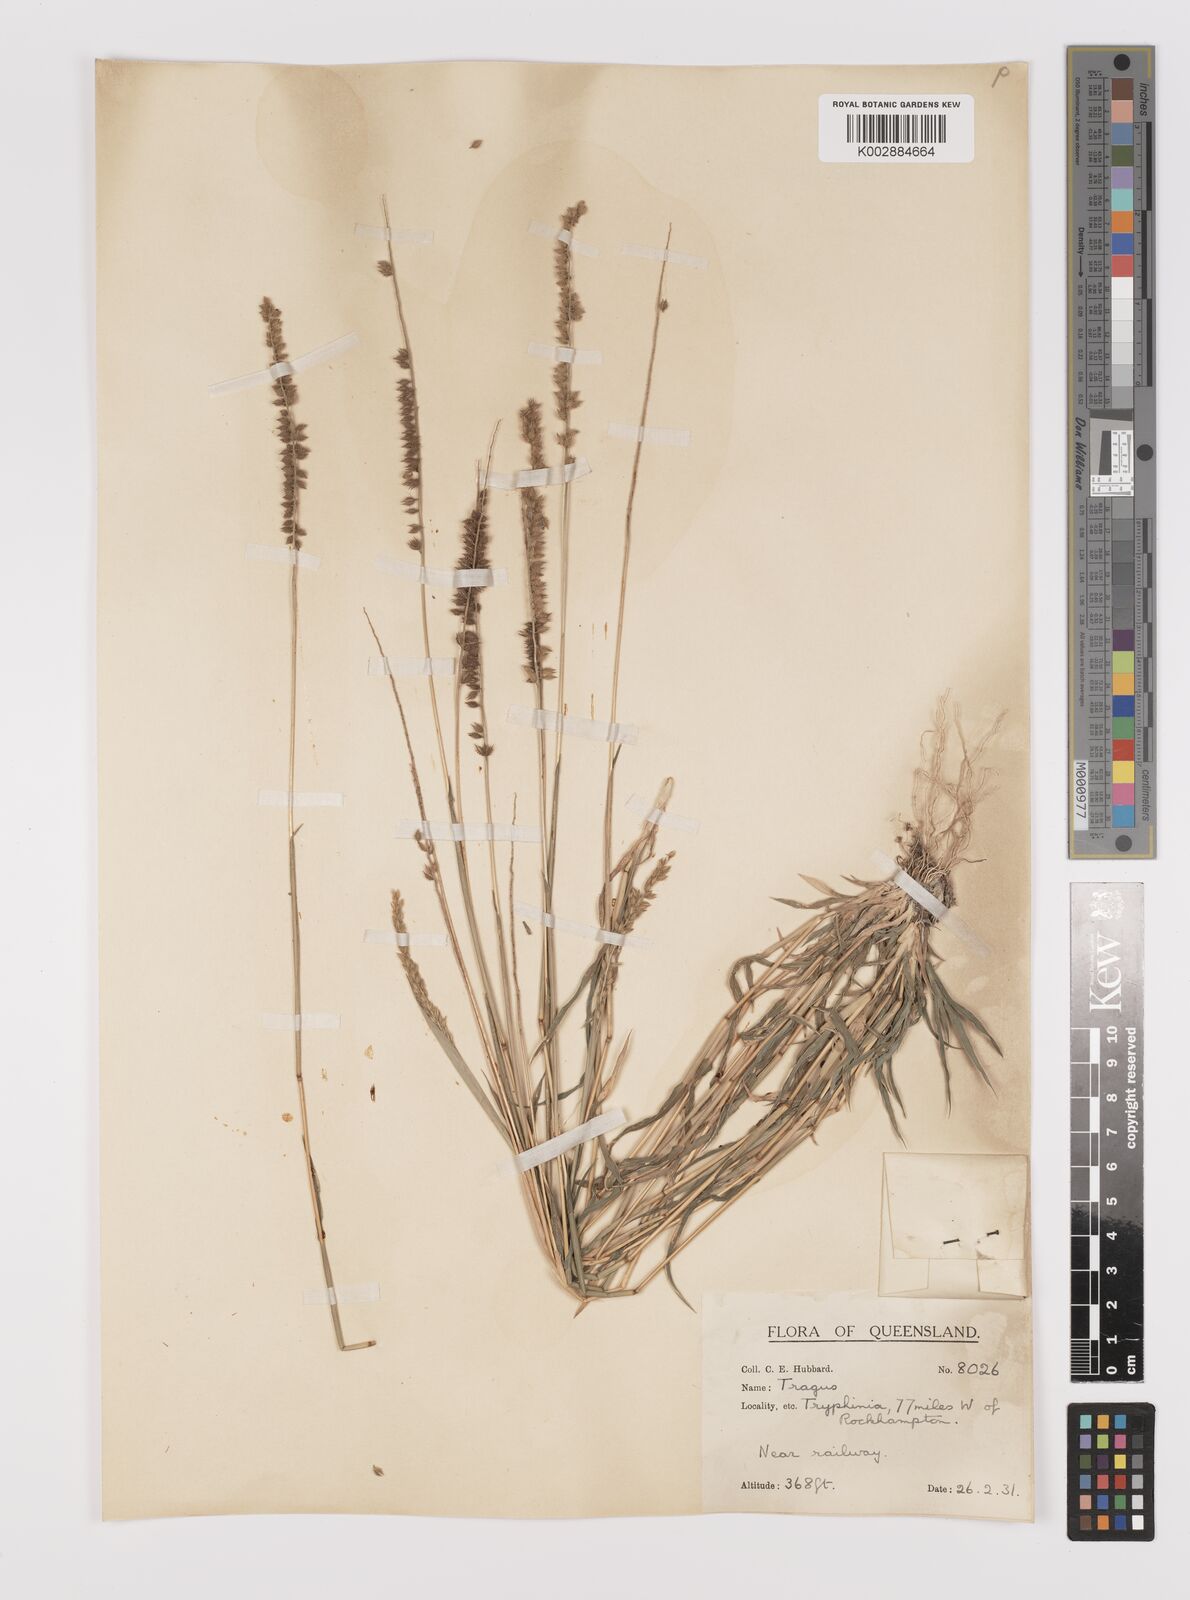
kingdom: Plantae
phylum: Tracheophyta
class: Liliopsida
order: Poales
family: Poaceae
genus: Tragus
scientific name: Tragus australianus
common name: Australian bur-grass
